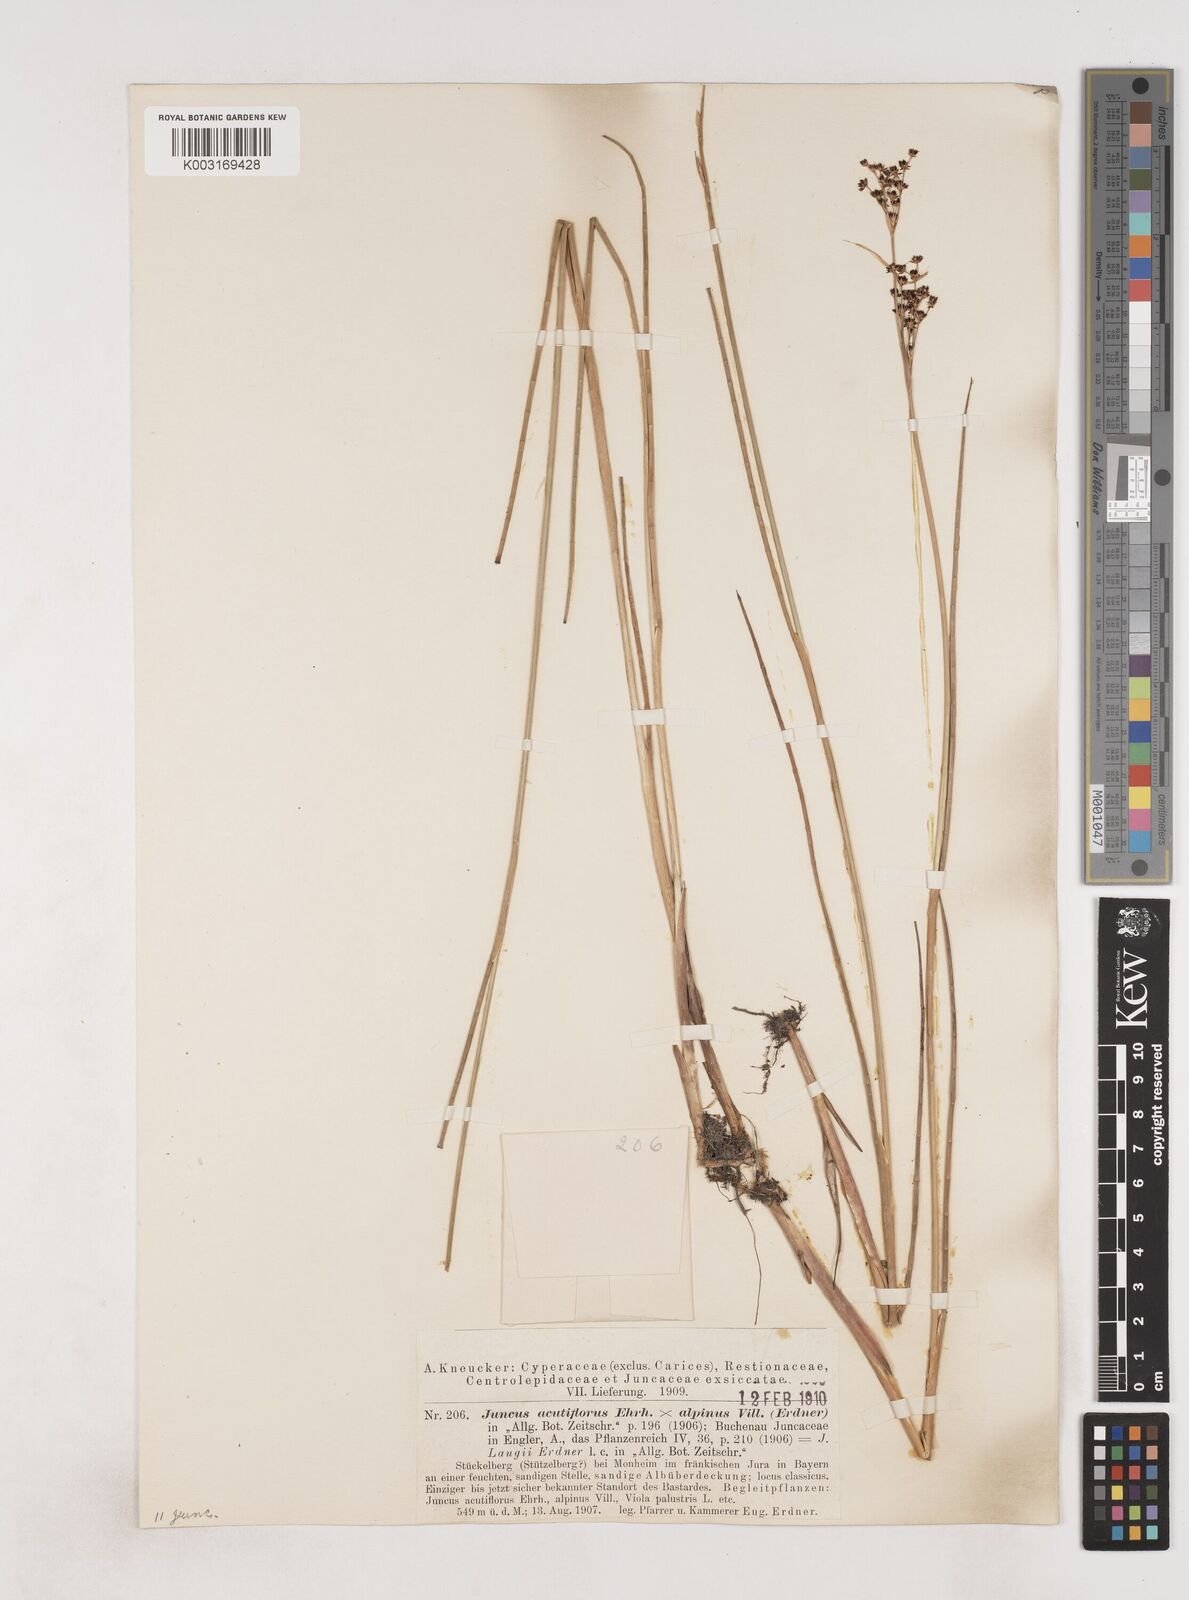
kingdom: Plantae
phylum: Tracheophyta
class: Liliopsida
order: Poales
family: Juncaceae
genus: Juncus
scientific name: Juncus acutiflorus
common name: Sharp-flowered rush
